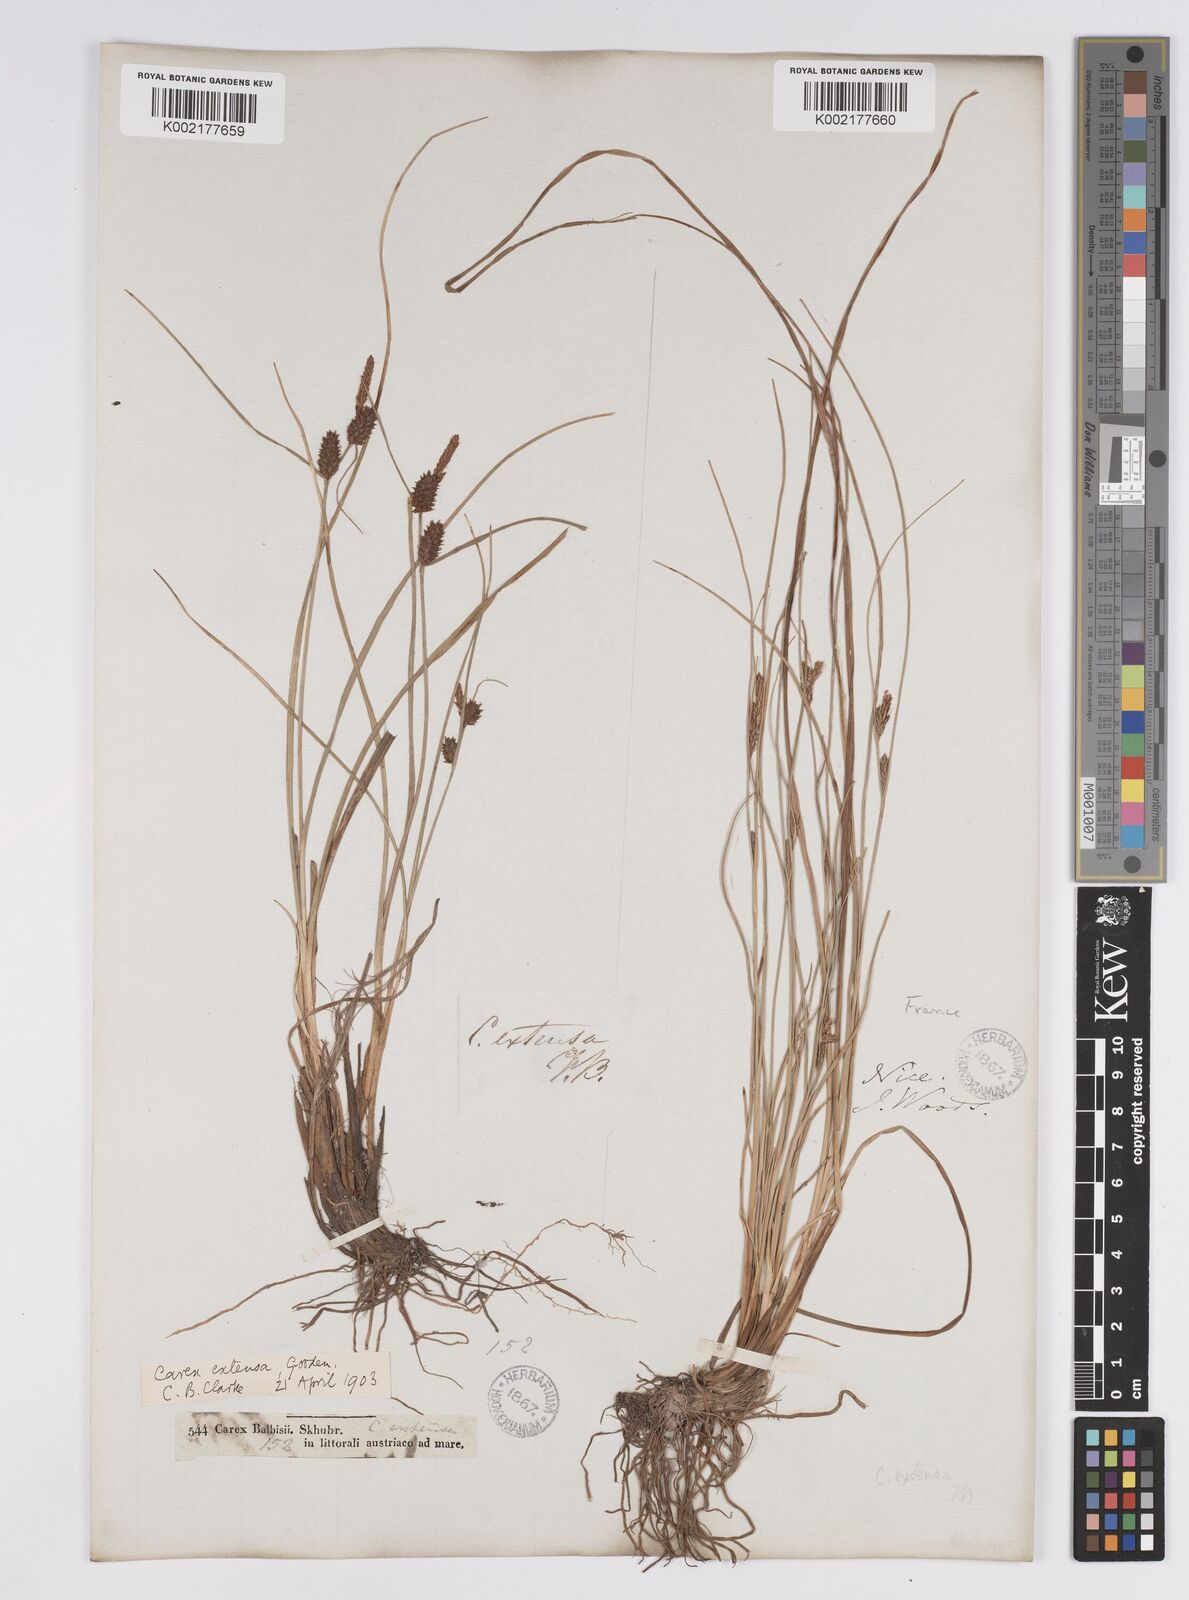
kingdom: Plantae
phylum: Tracheophyta
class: Liliopsida
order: Poales
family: Cyperaceae
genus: Carex
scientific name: Carex extensa
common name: Long-bracted sedge
